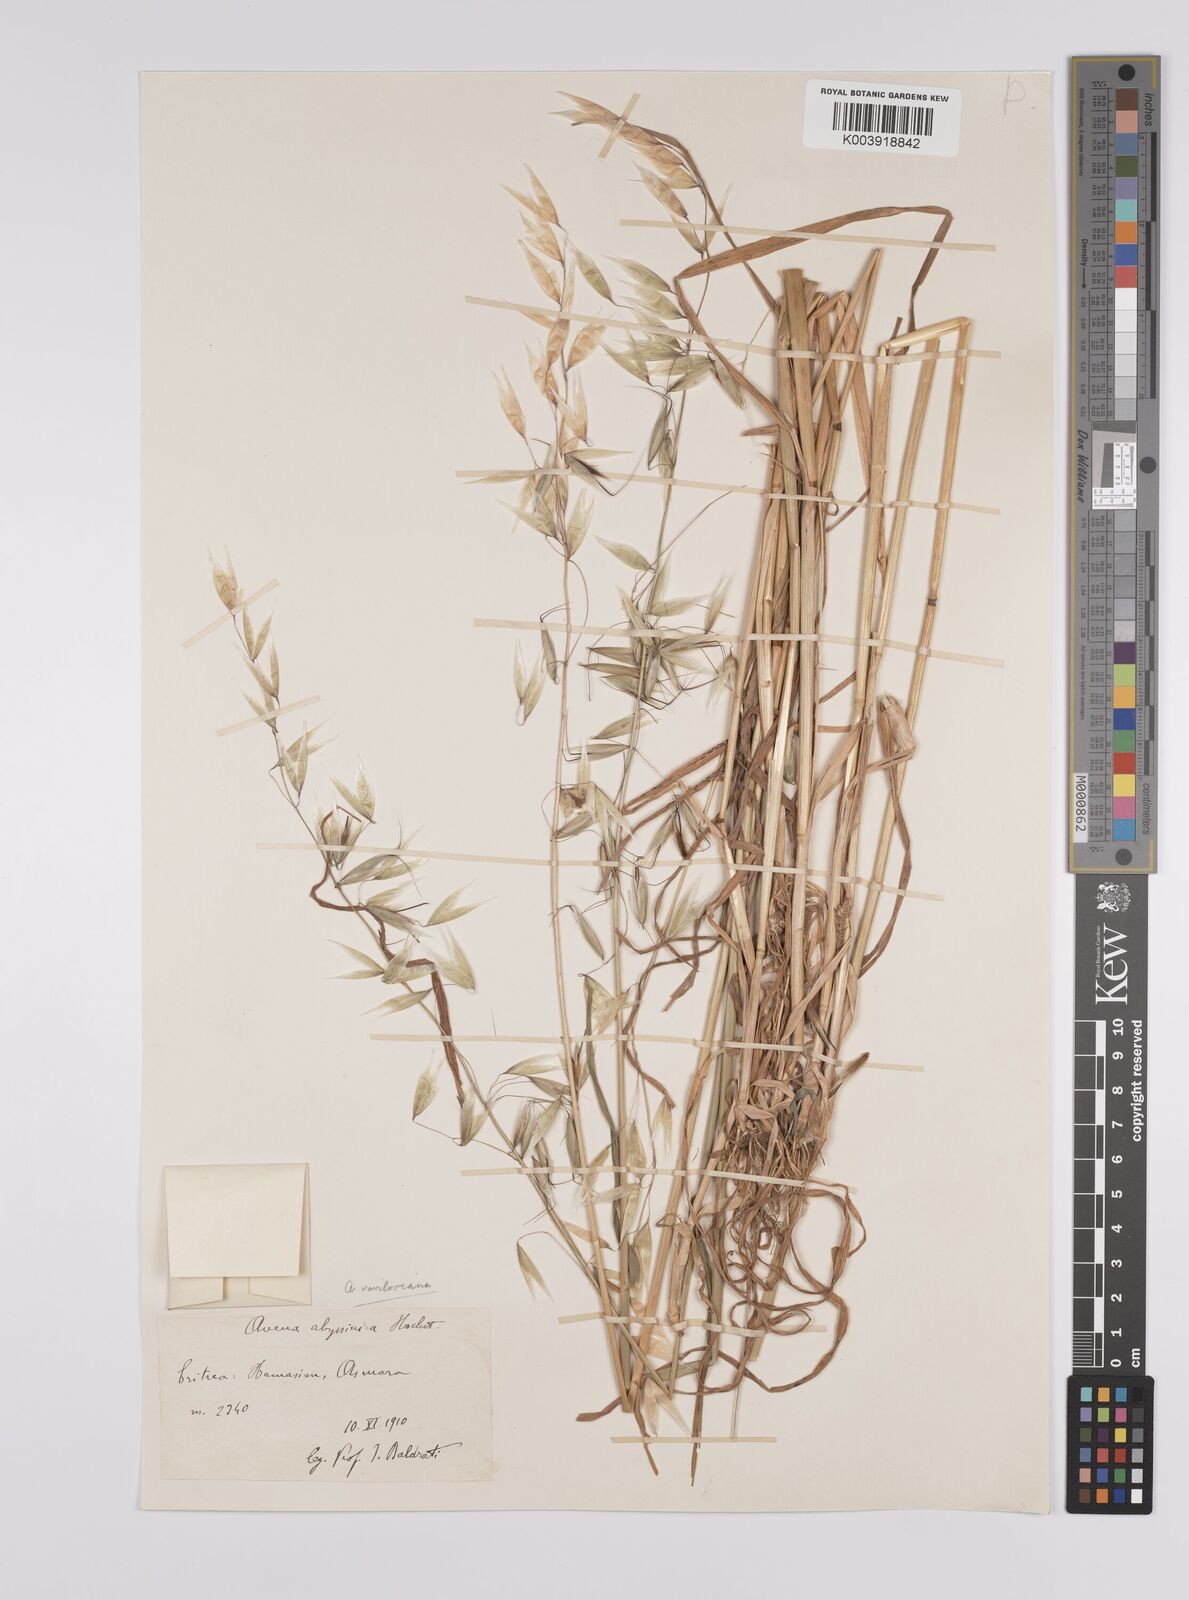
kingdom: Plantae
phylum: Tracheophyta
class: Liliopsida
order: Poales
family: Poaceae
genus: Avena
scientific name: Avena vaviloviana
